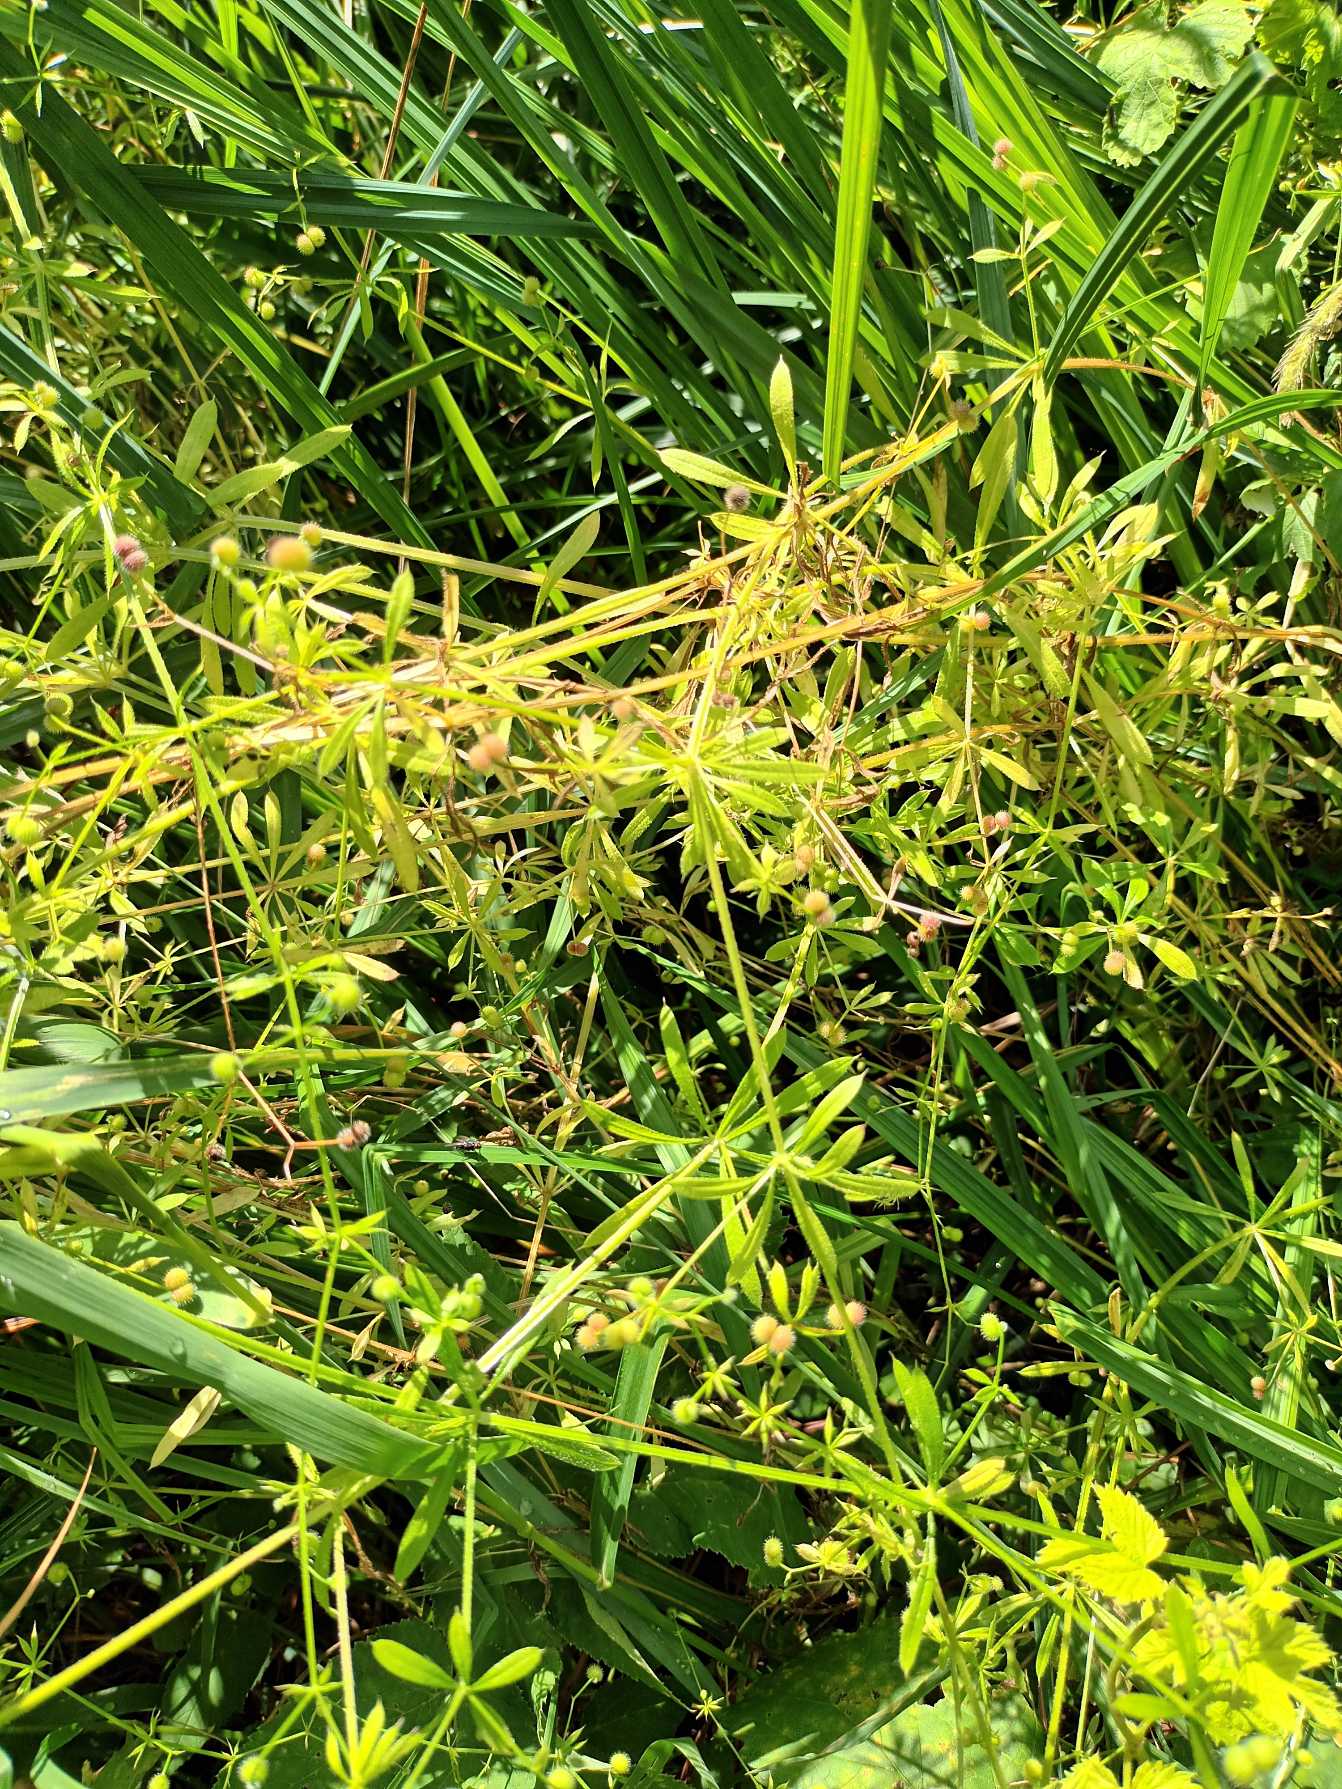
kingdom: Plantae
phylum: Tracheophyta
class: Magnoliopsida
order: Gentianales
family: Rubiaceae
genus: Galium
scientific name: Galium aparine
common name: Burre-snerre
